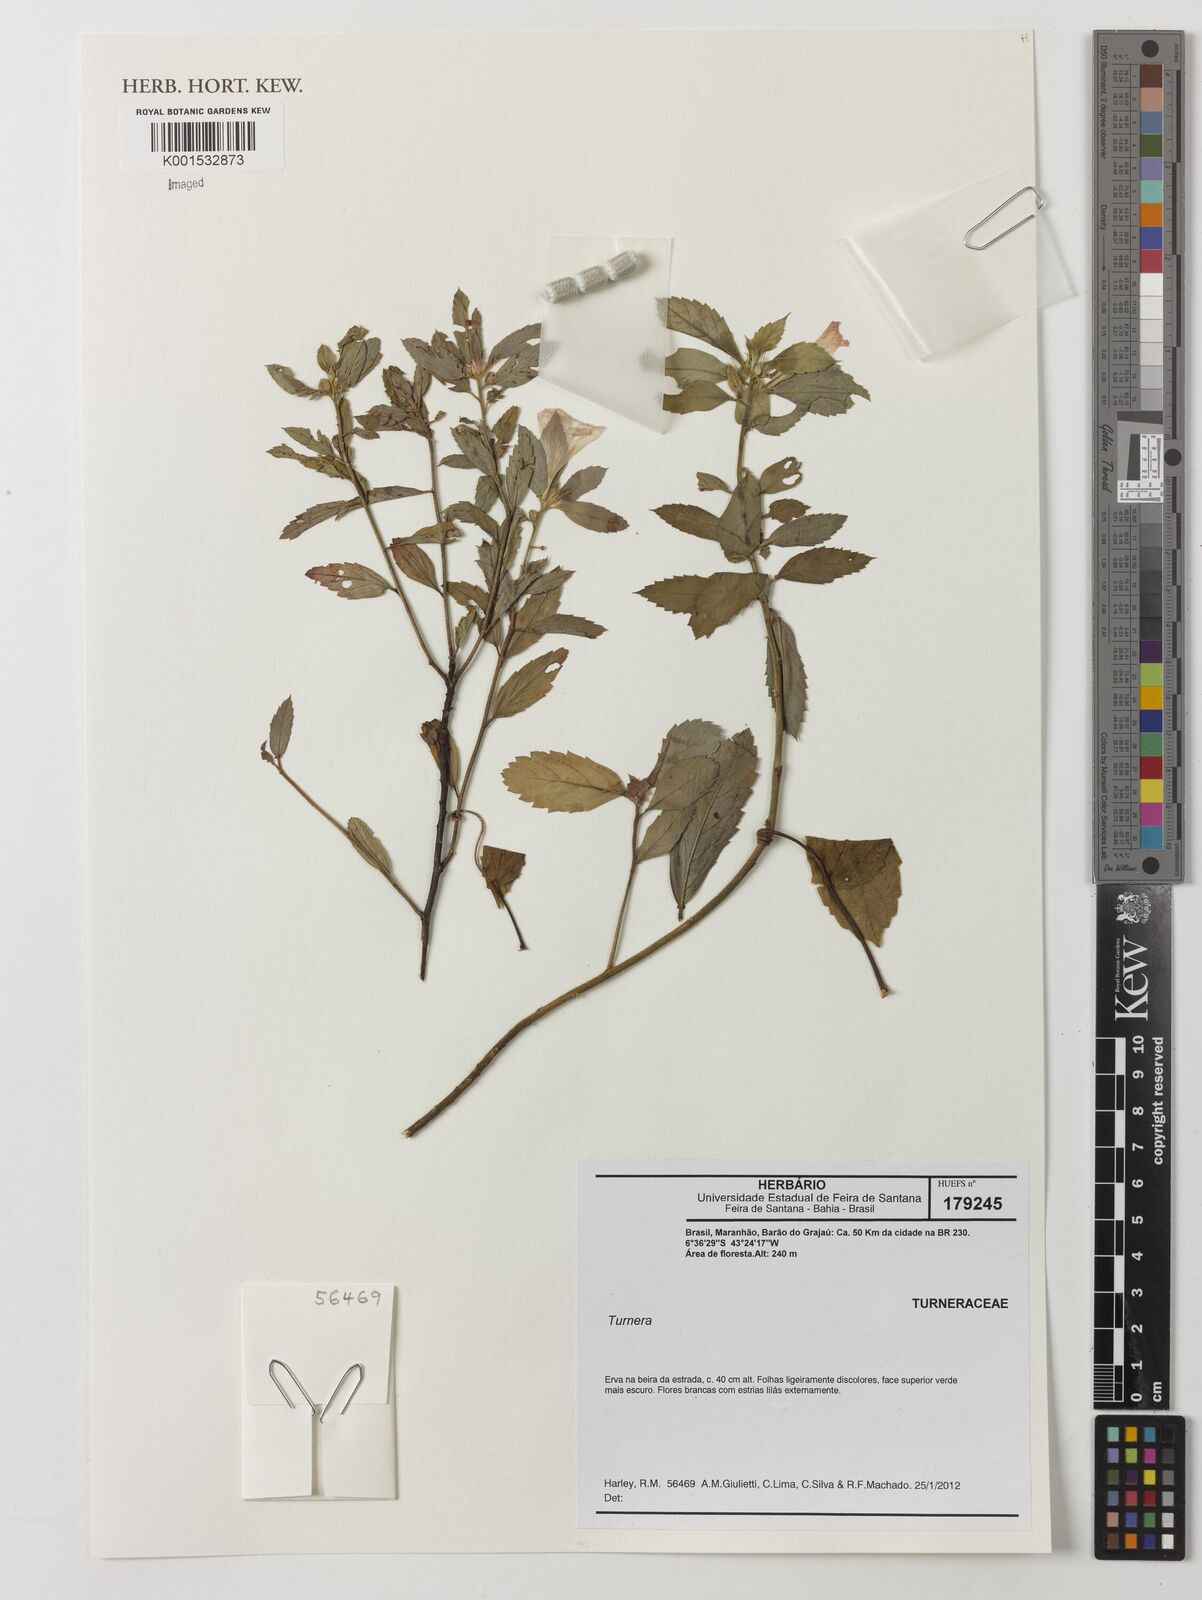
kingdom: Plantae
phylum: Tracheophyta
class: Magnoliopsida
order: Malpighiales
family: Turneraceae
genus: Turnera
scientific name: Turnera
